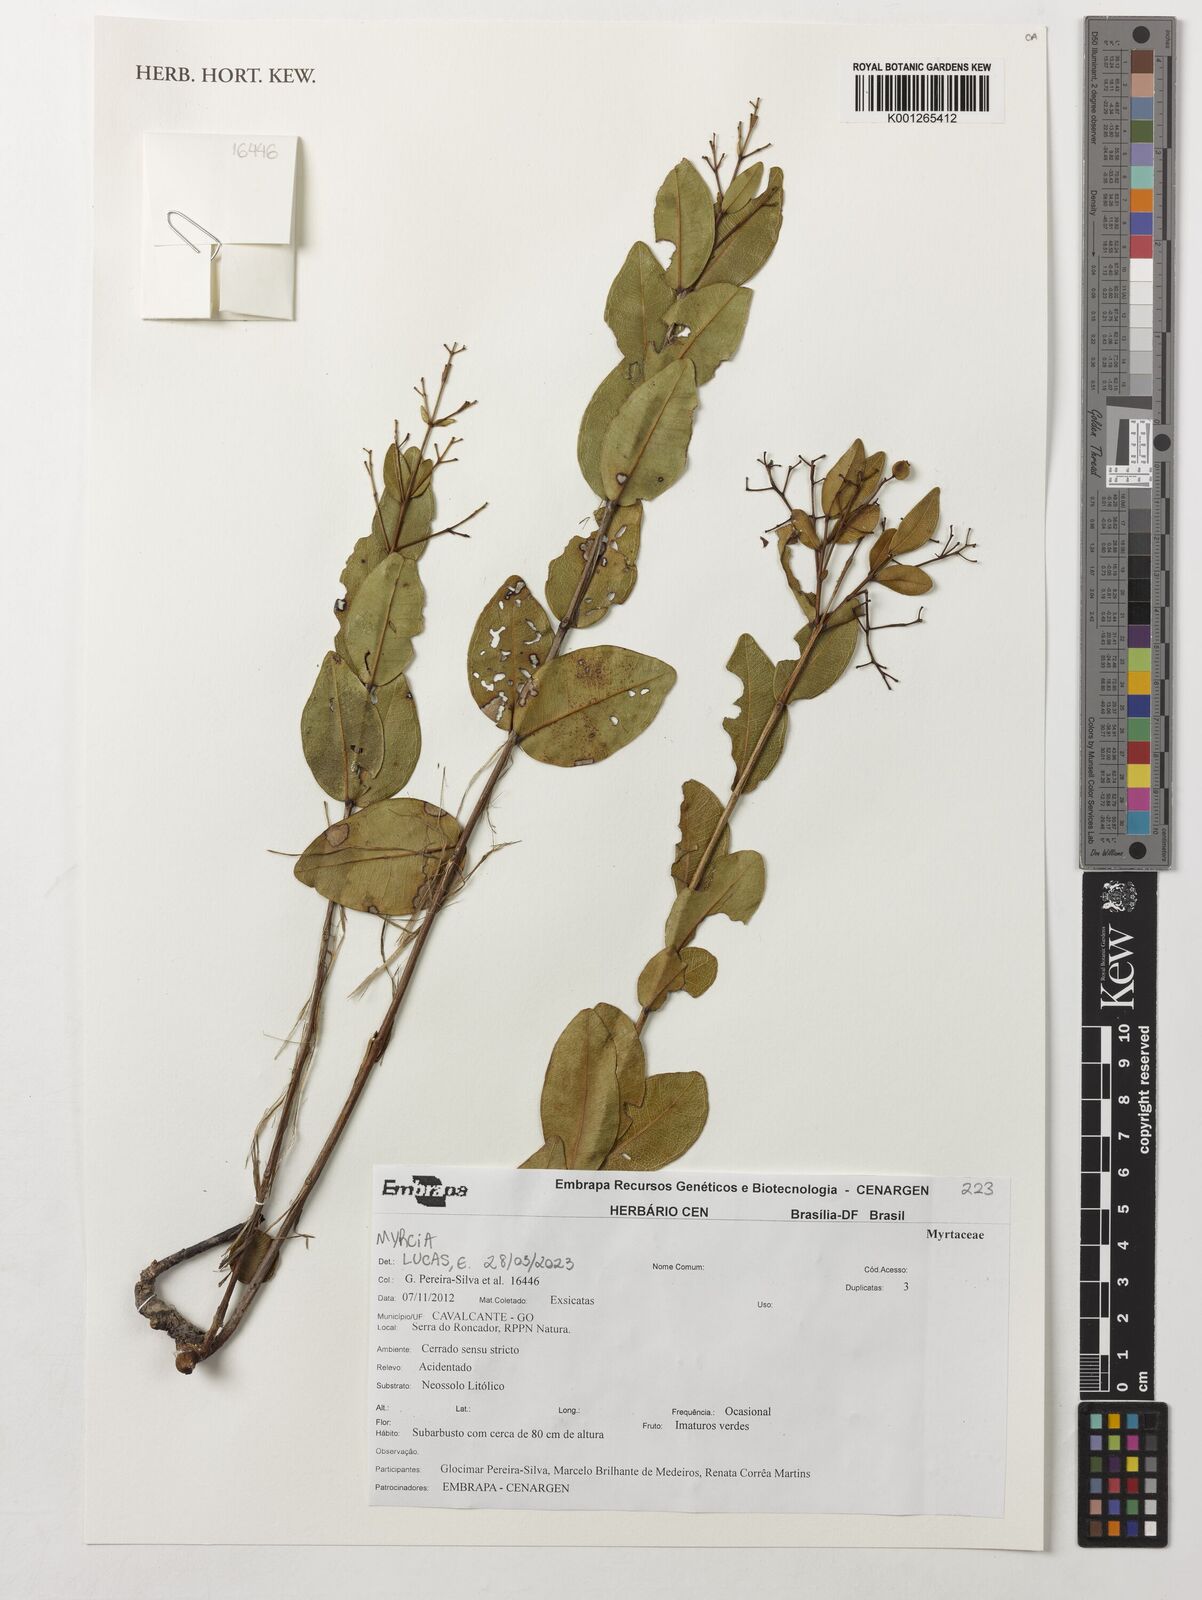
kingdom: Plantae
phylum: Tracheophyta
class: Magnoliopsida
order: Myrtales
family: Myrtaceae
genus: Myrcia
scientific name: Myrcia
